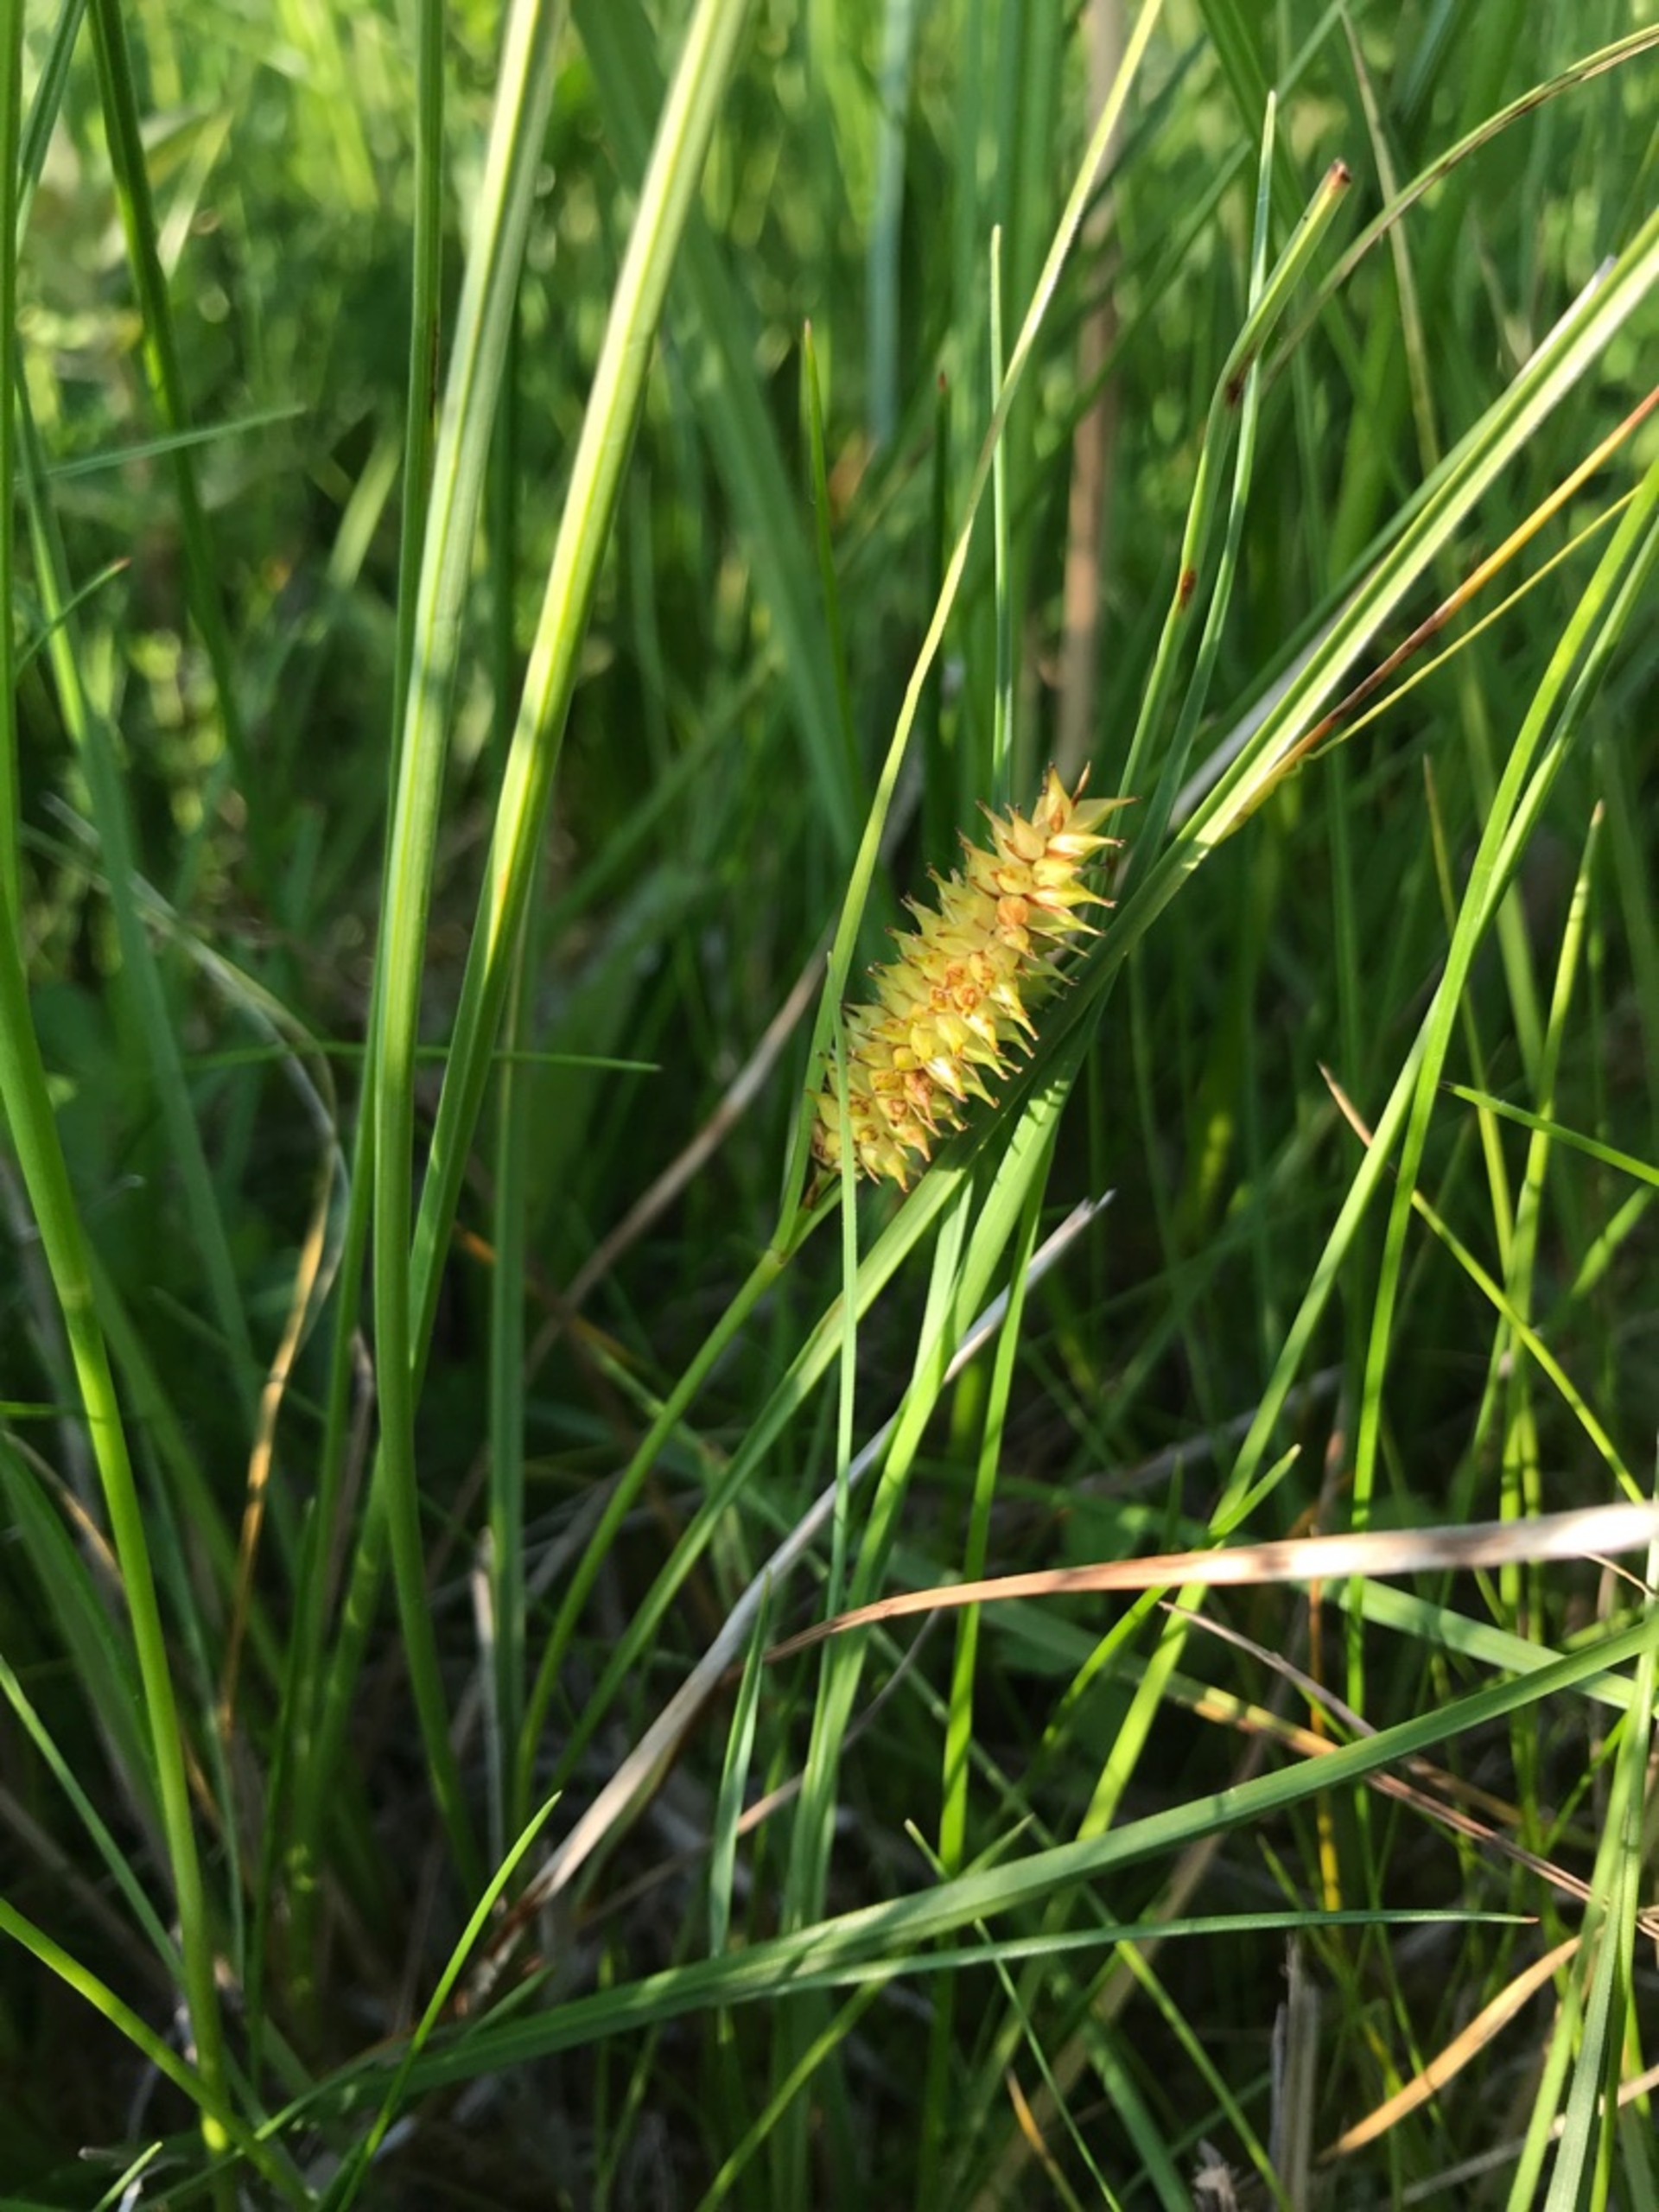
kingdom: Plantae
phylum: Tracheophyta
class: Liliopsida
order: Poales
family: Cyperaceae
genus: Carex
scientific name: Carex rostrata
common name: Næb-star
